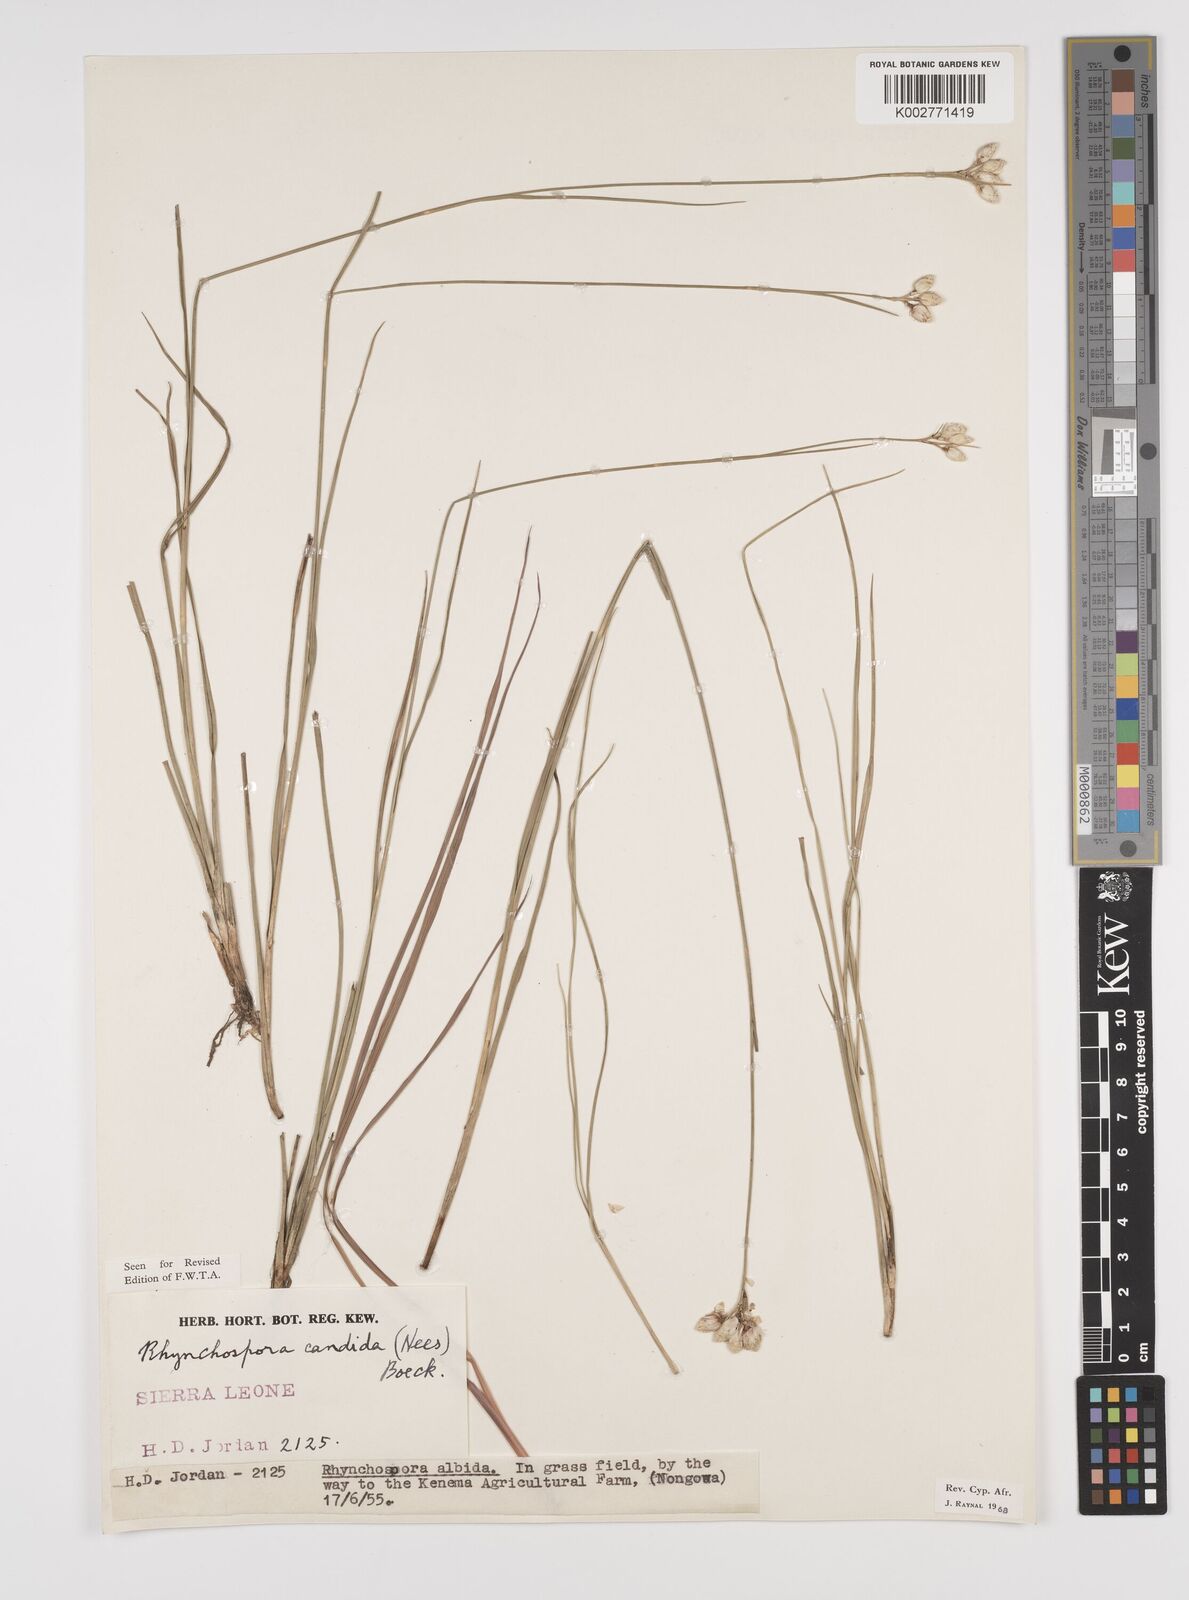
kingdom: Plantae
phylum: Tracheophyta
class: Liliopsida
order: Poales
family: Cyperaceae
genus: Rhynchospora
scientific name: Rhynchospora candida
